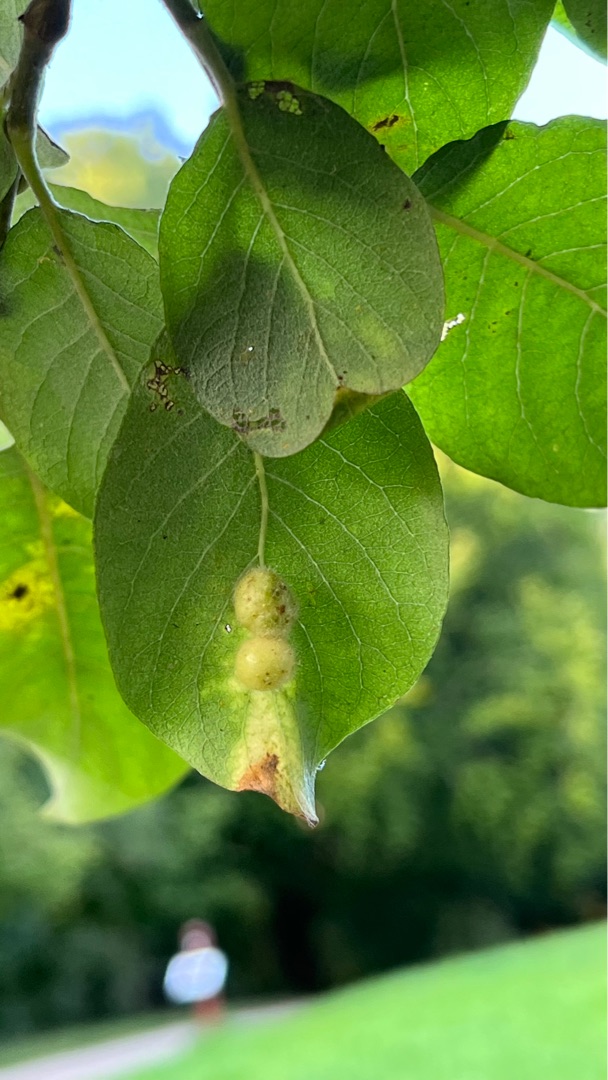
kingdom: Animalia
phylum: Arthropoda
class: Insecta
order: Hymenoptera
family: Tenthredinidae
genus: Euura
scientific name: Euura
